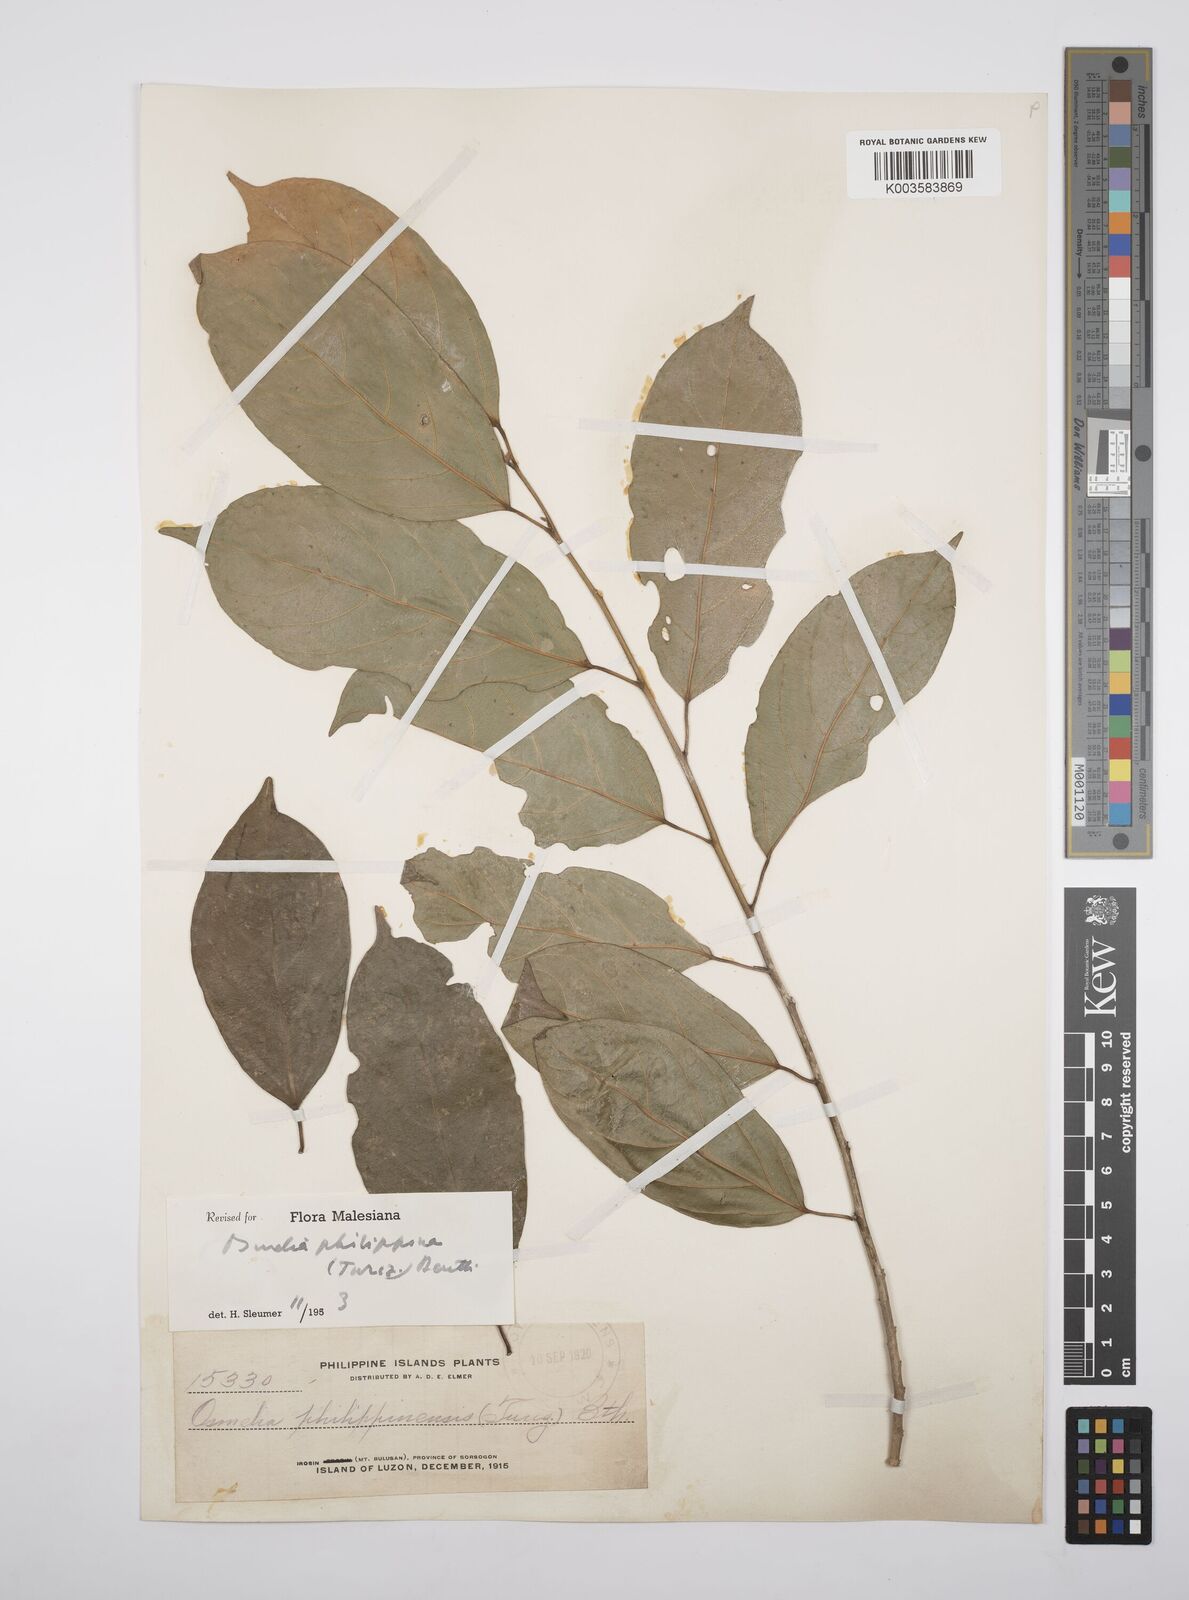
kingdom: Plantae
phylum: Tracheophyta
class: Magnoliopsida
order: Malpighiales
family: Salicaceae
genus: Osmelia
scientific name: Osmelia philippina
